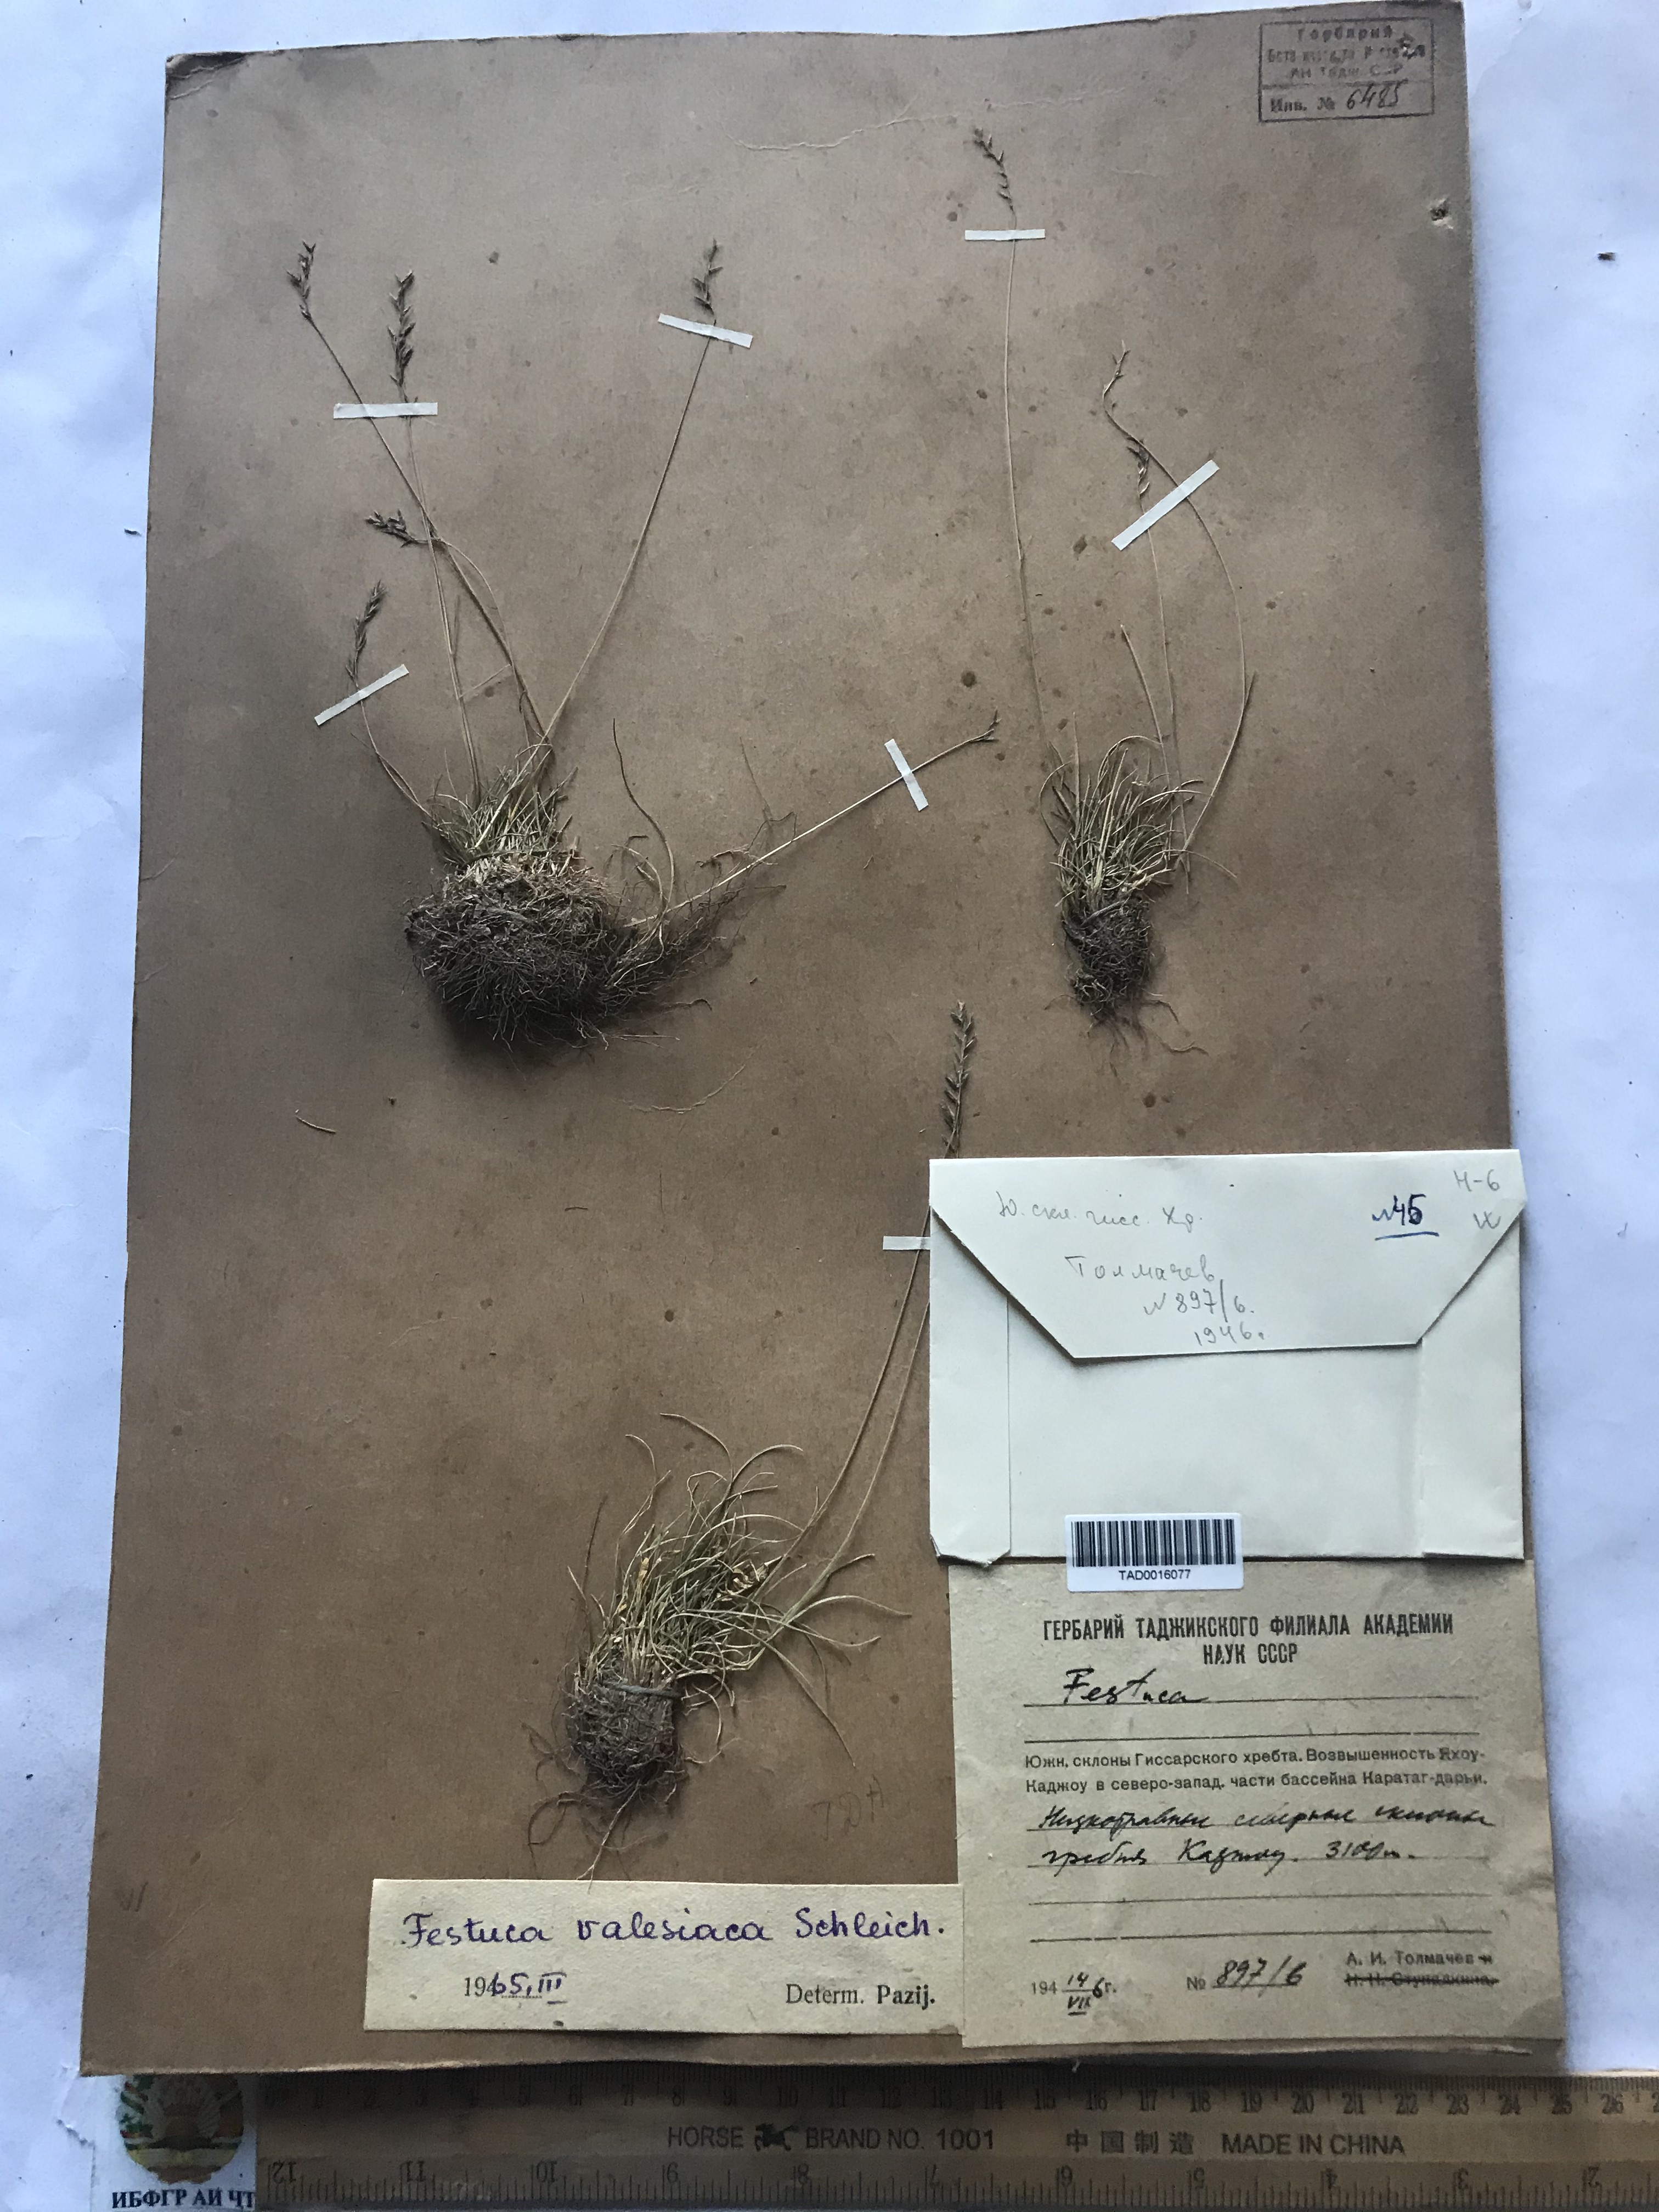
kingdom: Plantae
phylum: Tracheophyta
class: Liliopsida
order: Poales
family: Poaceae
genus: Festuca
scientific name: Festuca valesiaca
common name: Volga fescue
